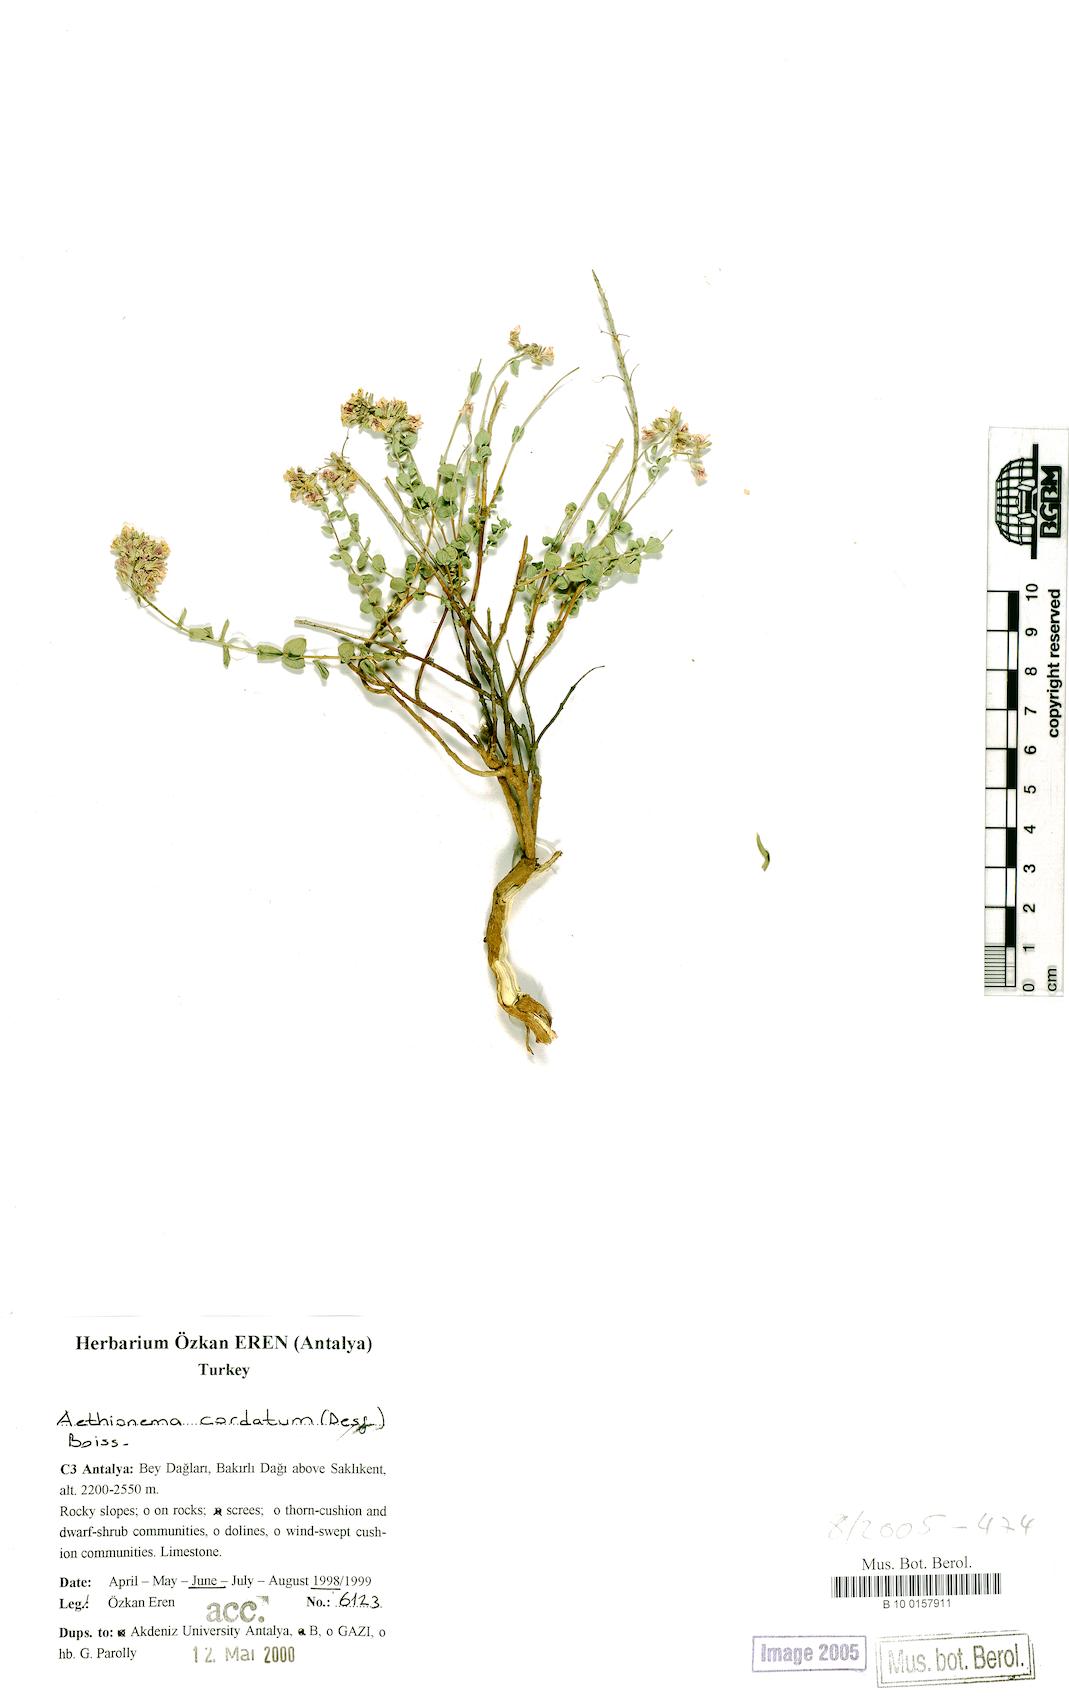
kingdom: Plantae
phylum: Tracheophyta
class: Magnoliopsida
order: Brassicales
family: Brassicaceae
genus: Aethionema
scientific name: Aethionema cordatum
